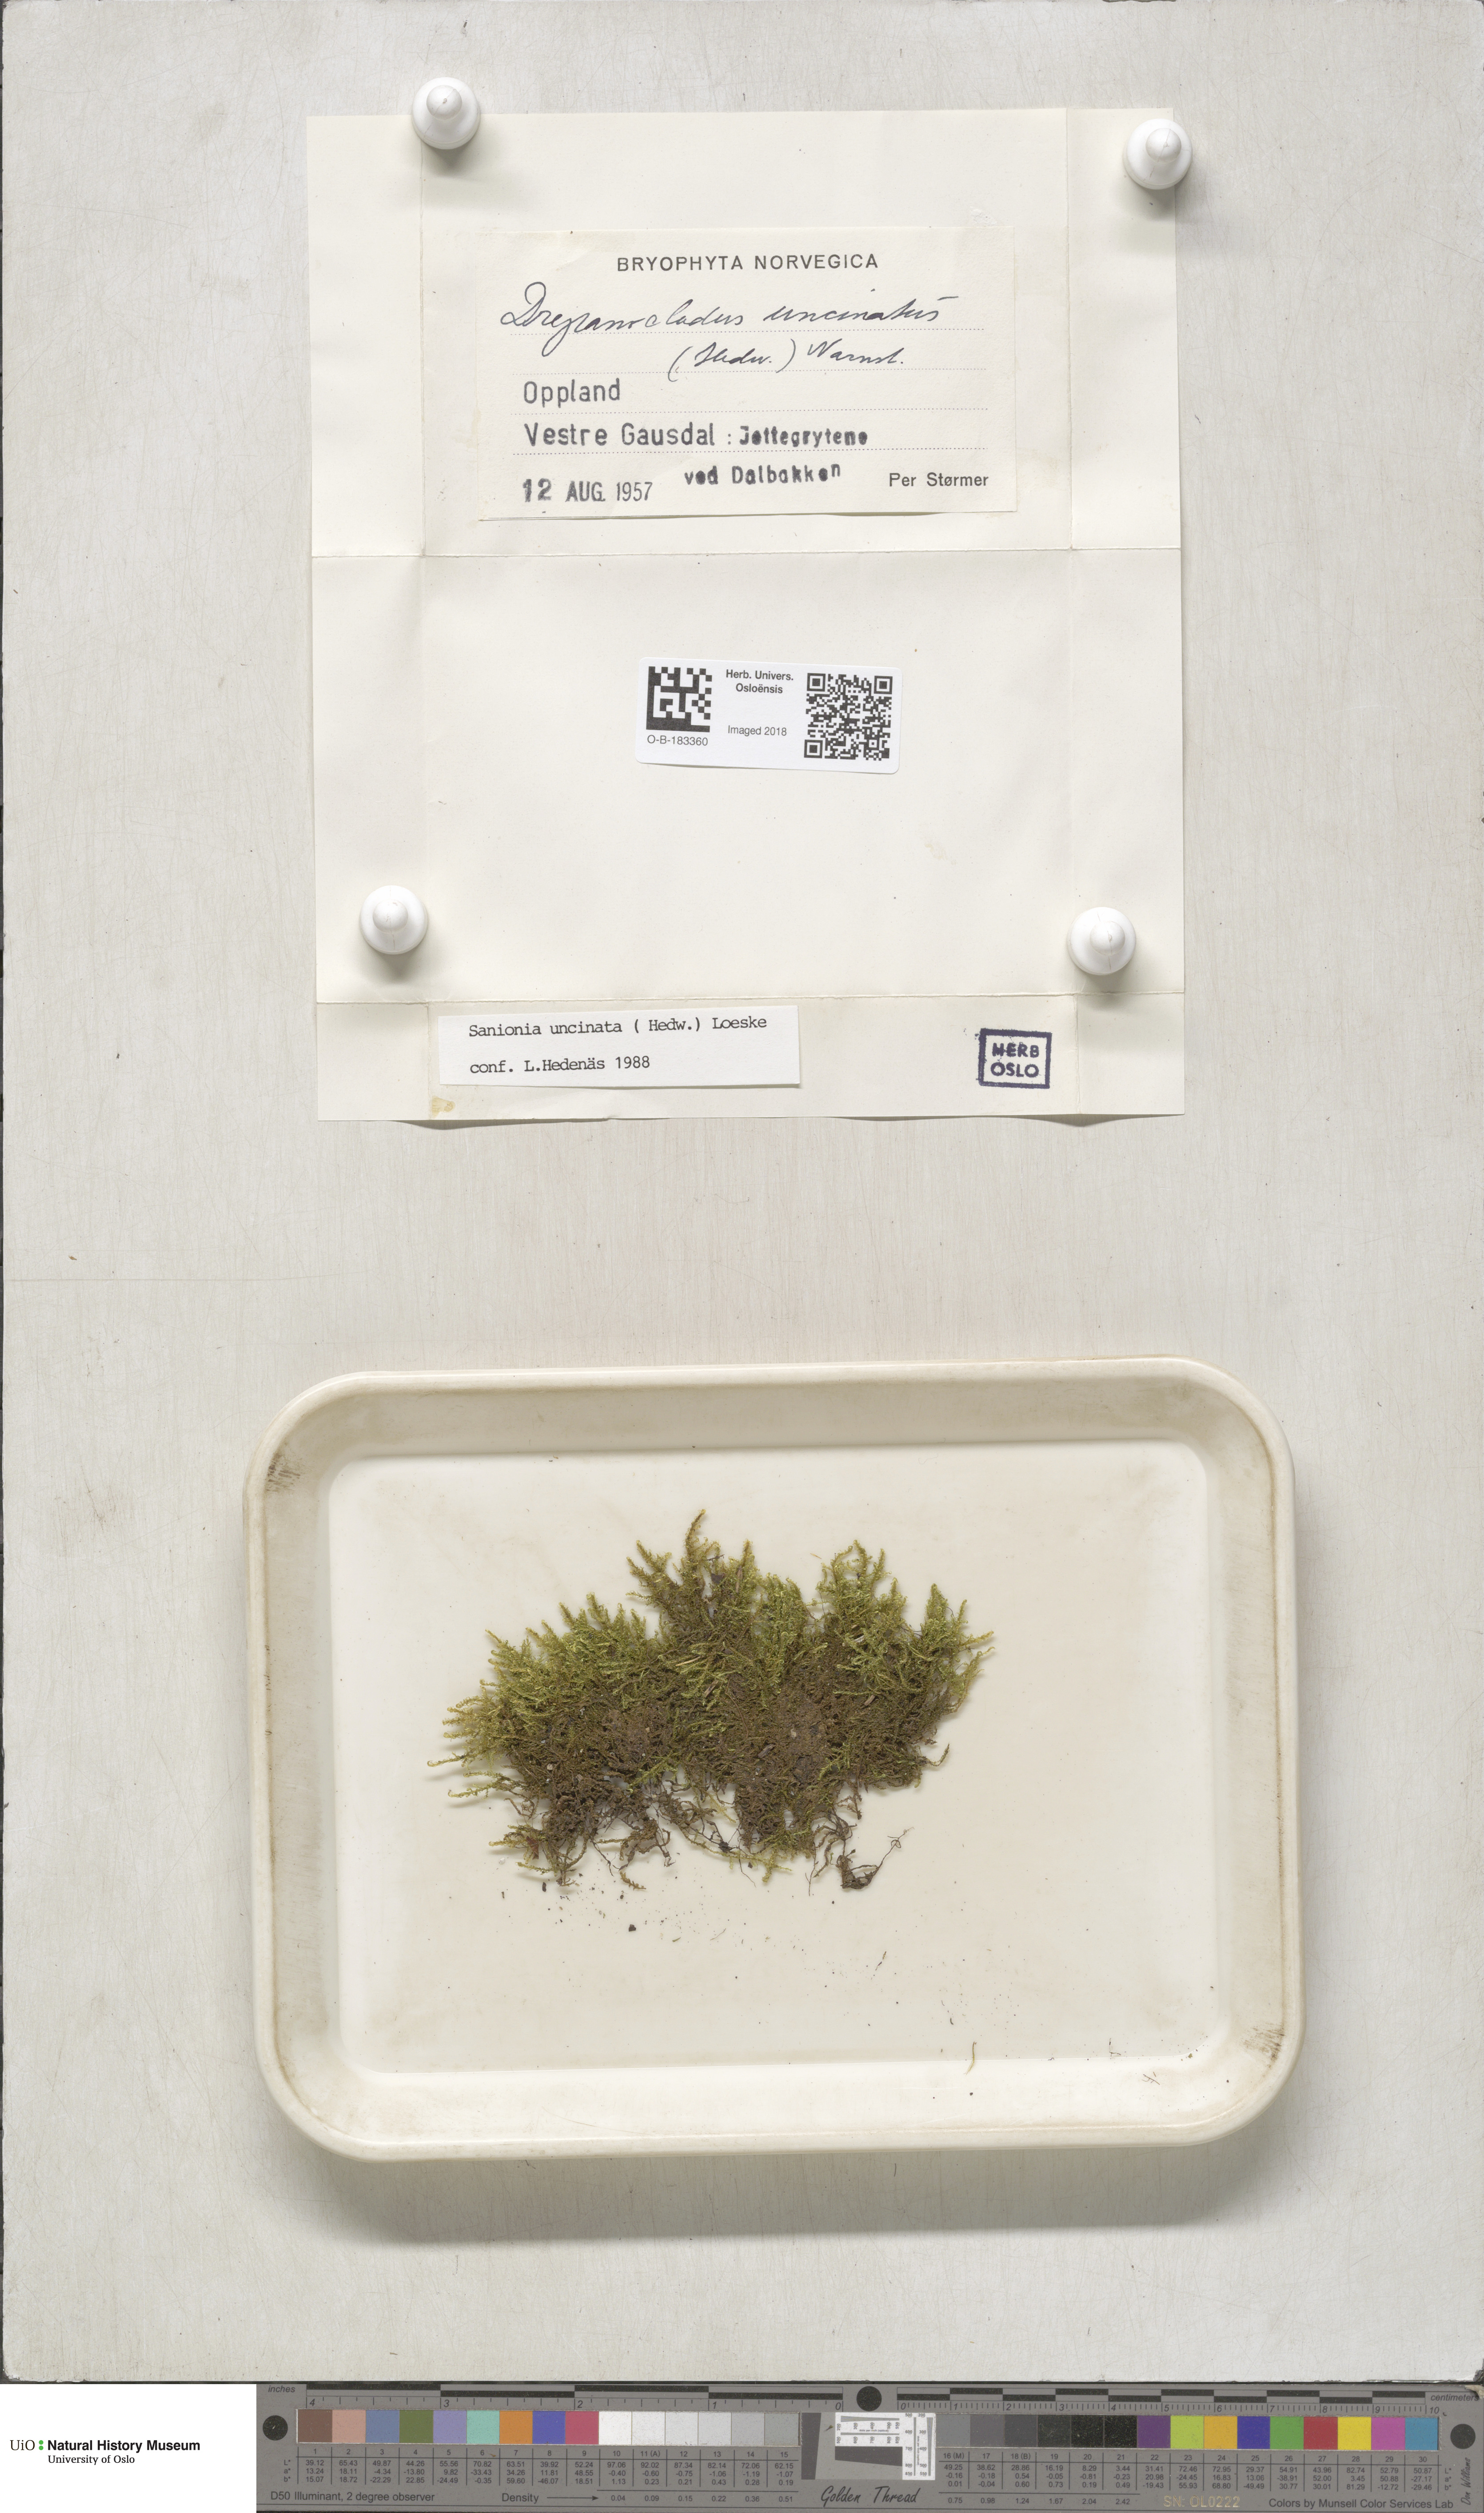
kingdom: Plantae
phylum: Bryophyta
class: Bryopsida
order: Hypnales
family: Scorpidiaceae
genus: Sanionia
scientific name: Sanionia uncinata
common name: Sickle moss
